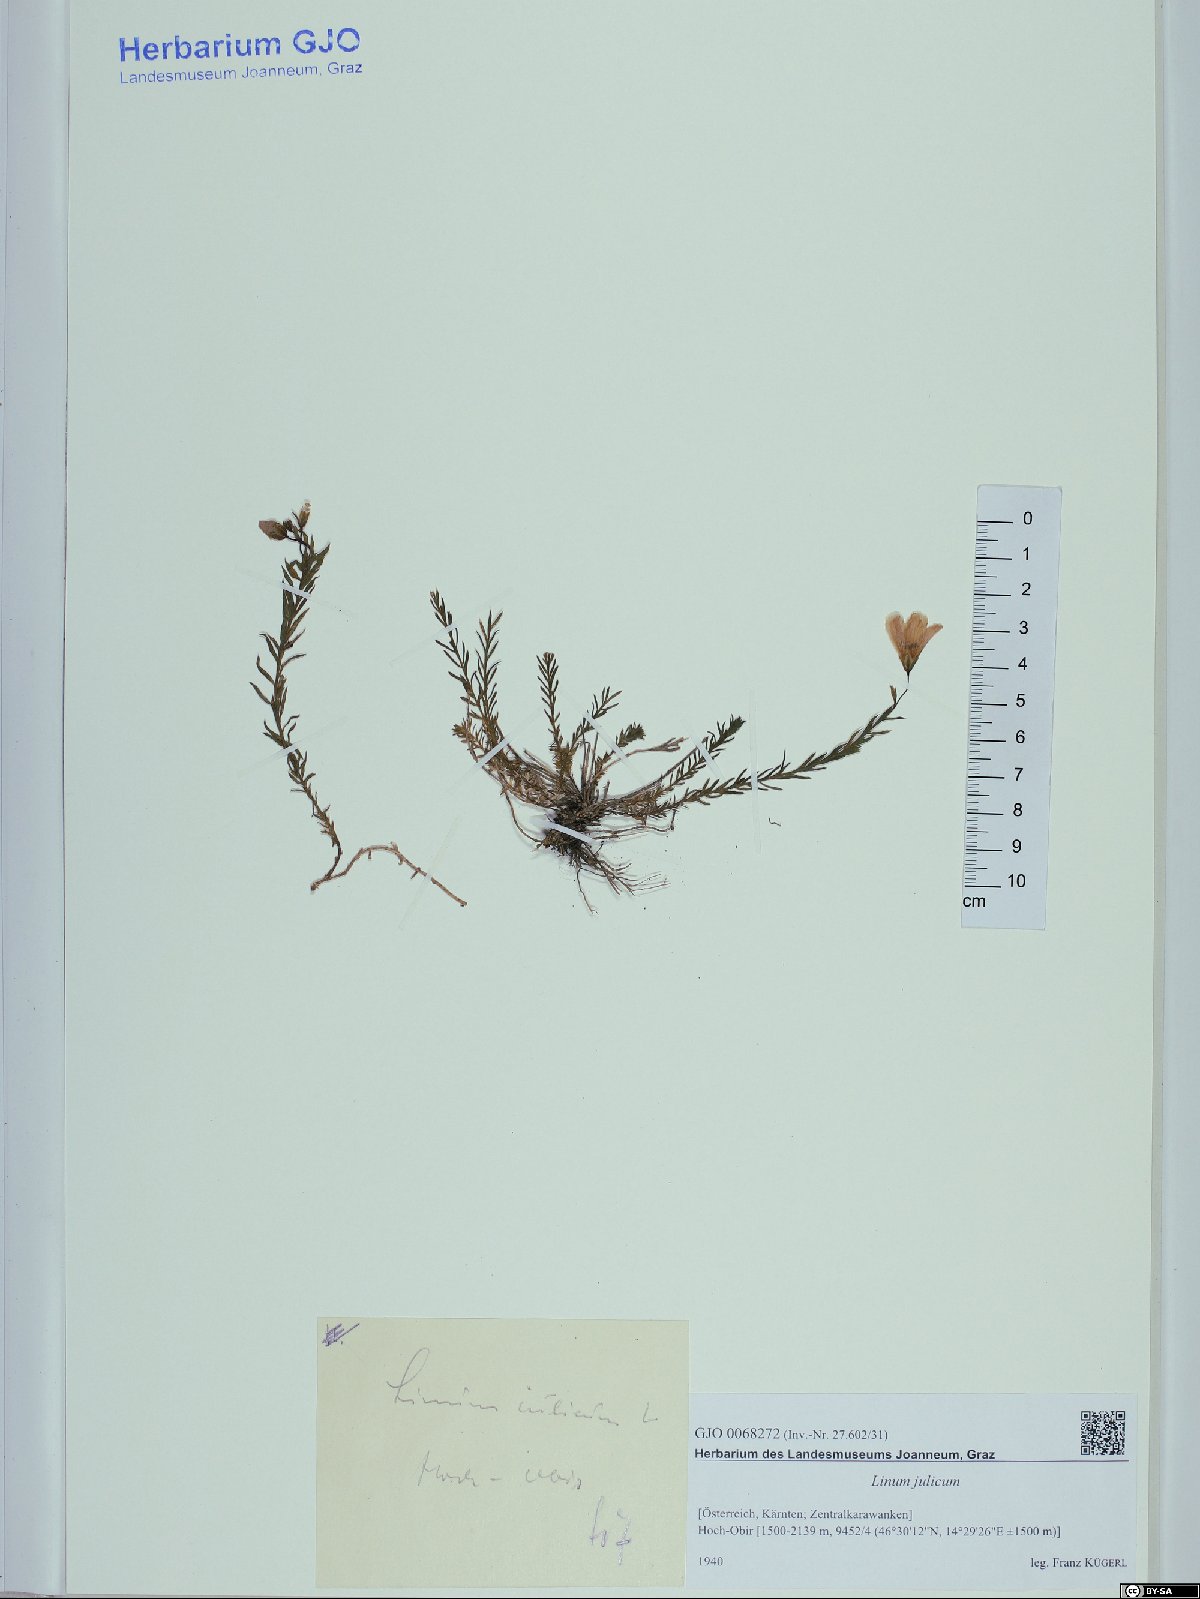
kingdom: Plantae
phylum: Tracheophyta
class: Magnoliopsida
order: Malpighiales
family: Linaceae
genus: Linum
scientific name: Linum alpinum
